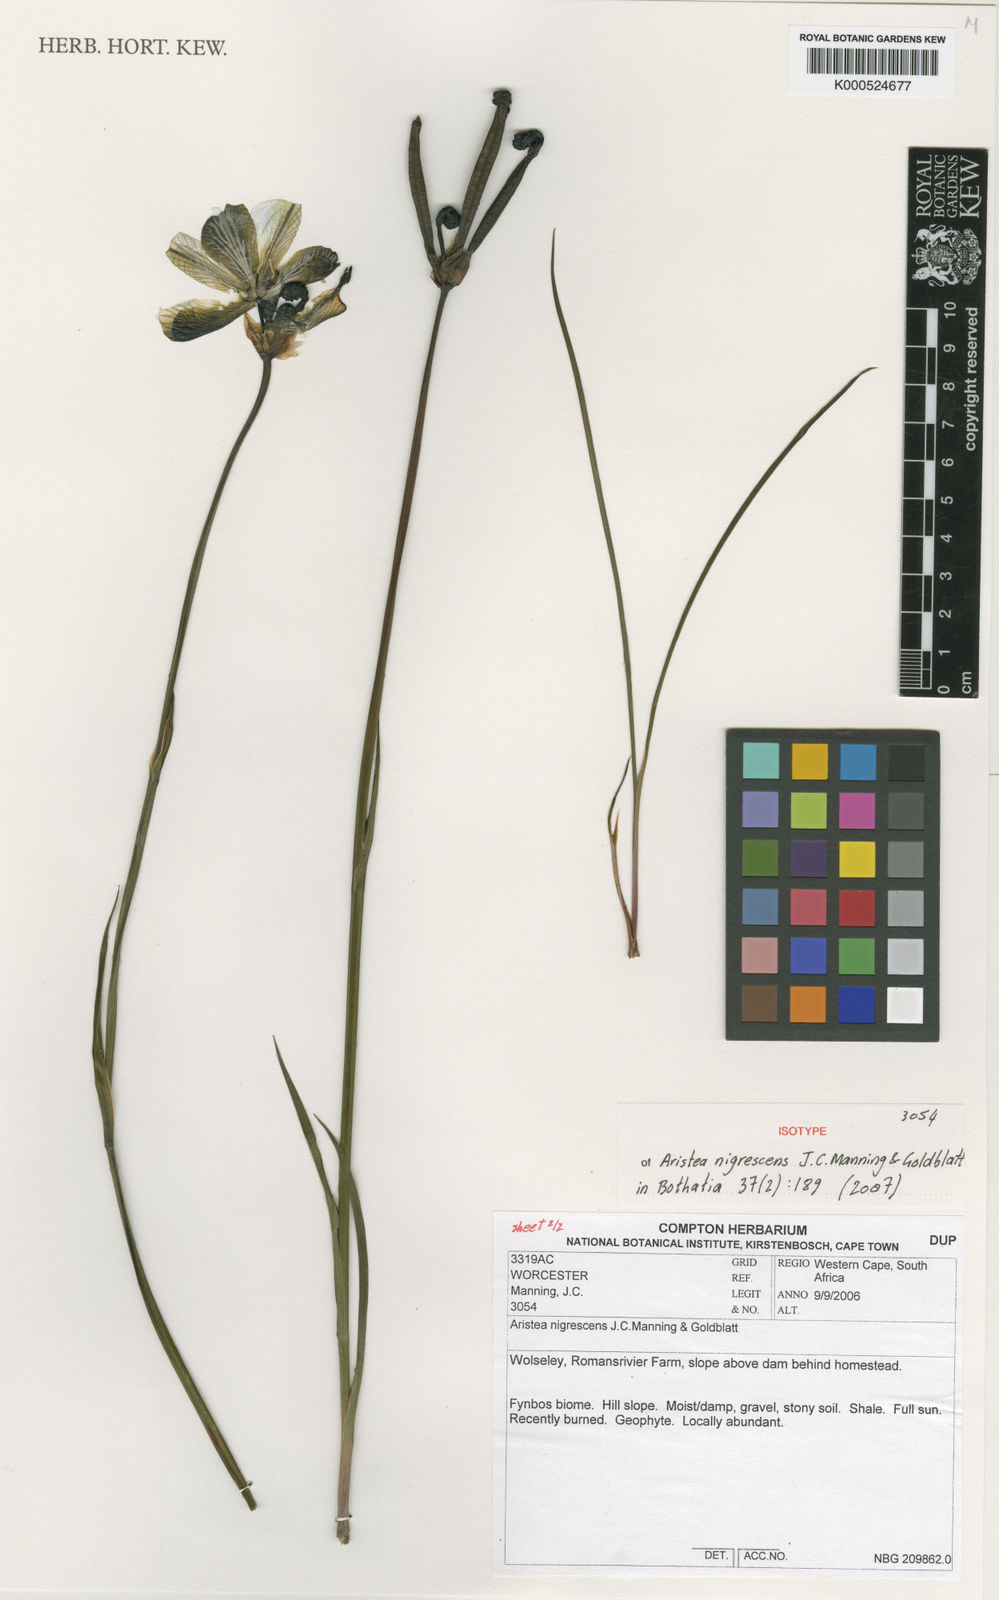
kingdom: Plantae
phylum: Tracheophyta
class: Liliopsida
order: Asparagales
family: Iridaceae
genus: Aristea
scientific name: Aristea nigrescens
